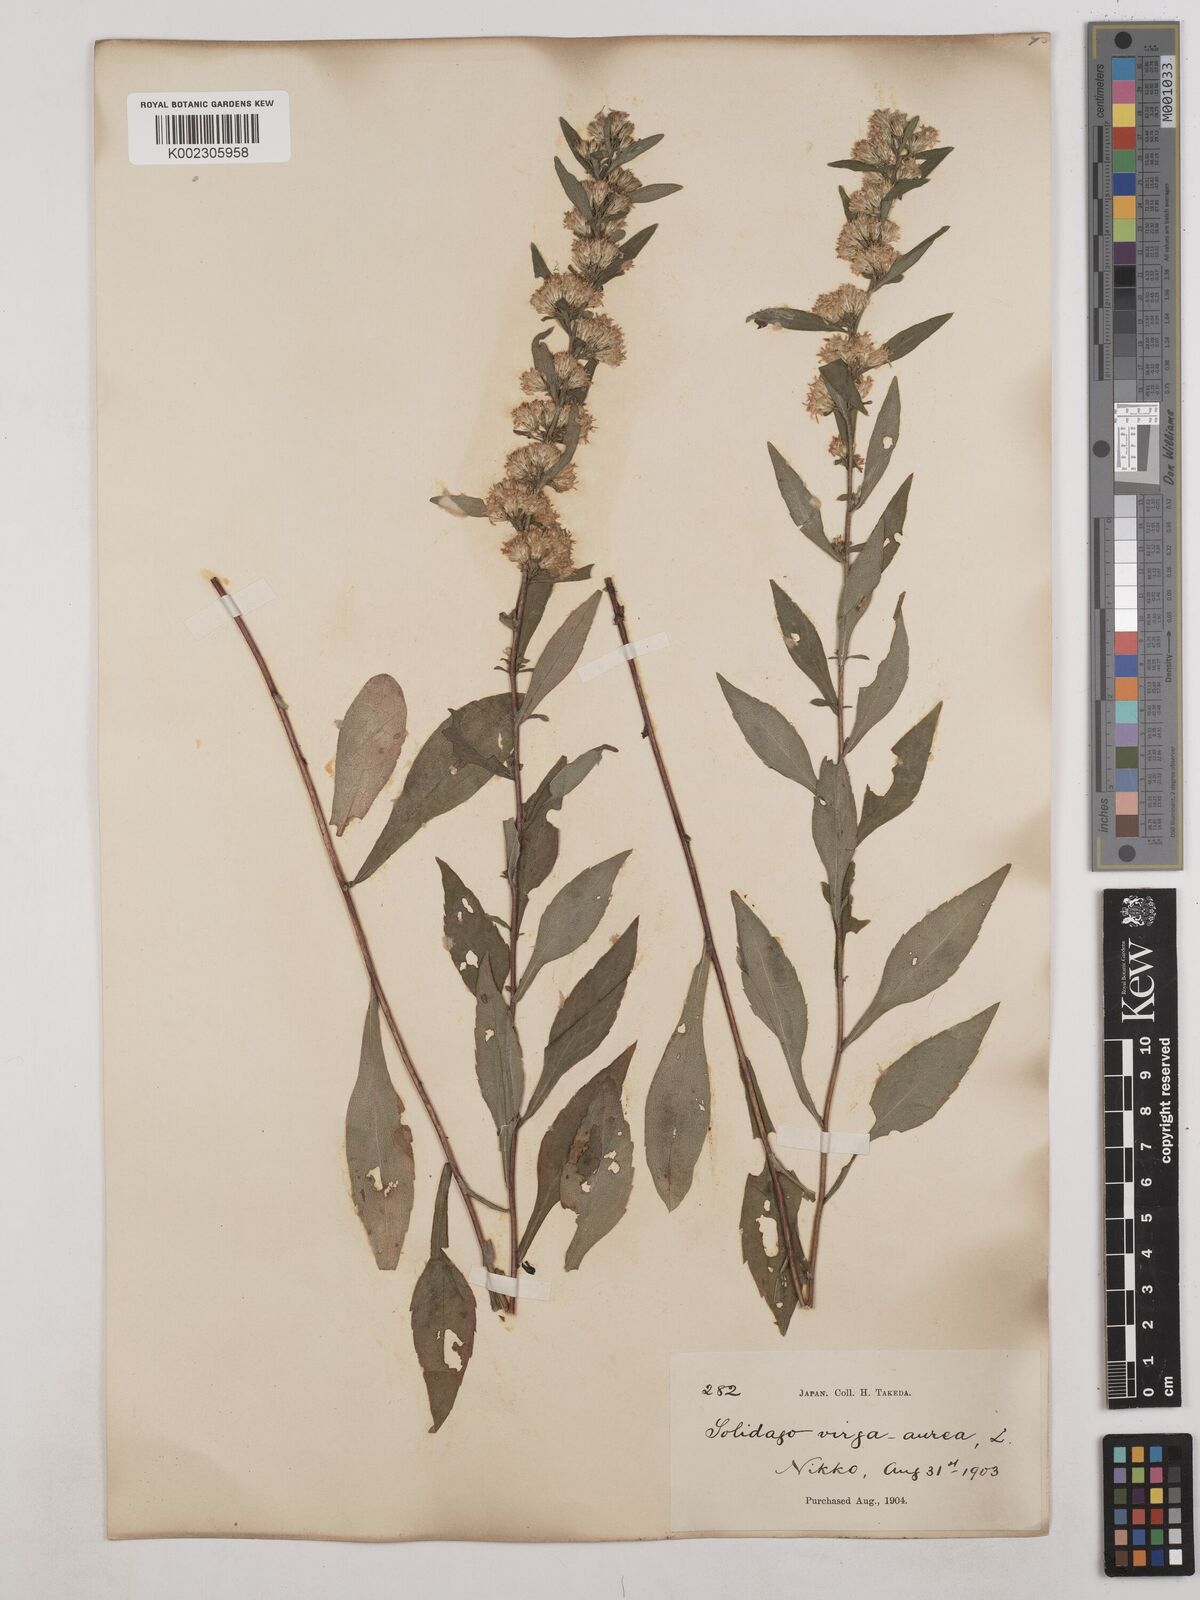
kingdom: Plantae
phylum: Tracheophyta
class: Magnoliopsida
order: Asterales
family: Asteraceae
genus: Solidago
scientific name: Solidago virgaurea
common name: Goldenrod
